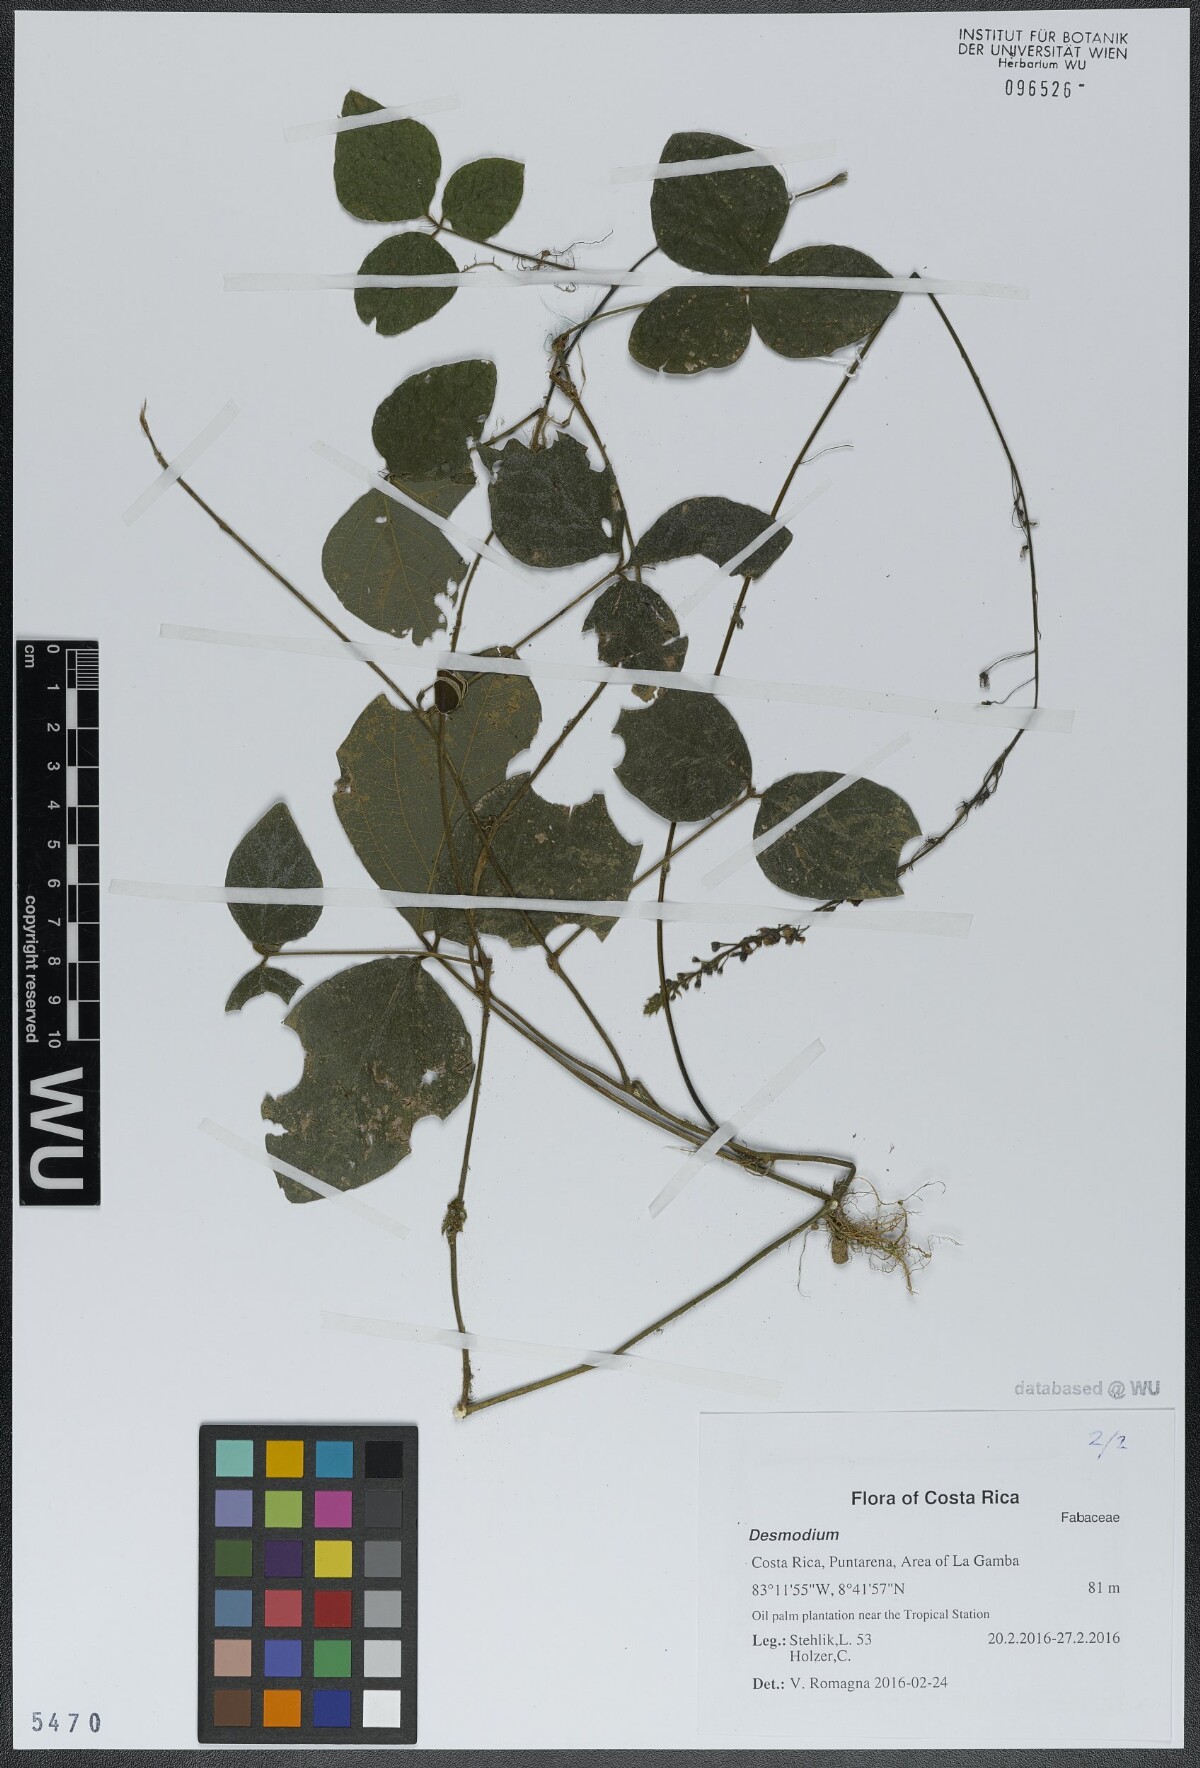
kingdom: Plantae
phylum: Tracheophyta
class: Magnoliopsida
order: Fabales
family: Fabaceae
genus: Desmodium
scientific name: Desmodium
